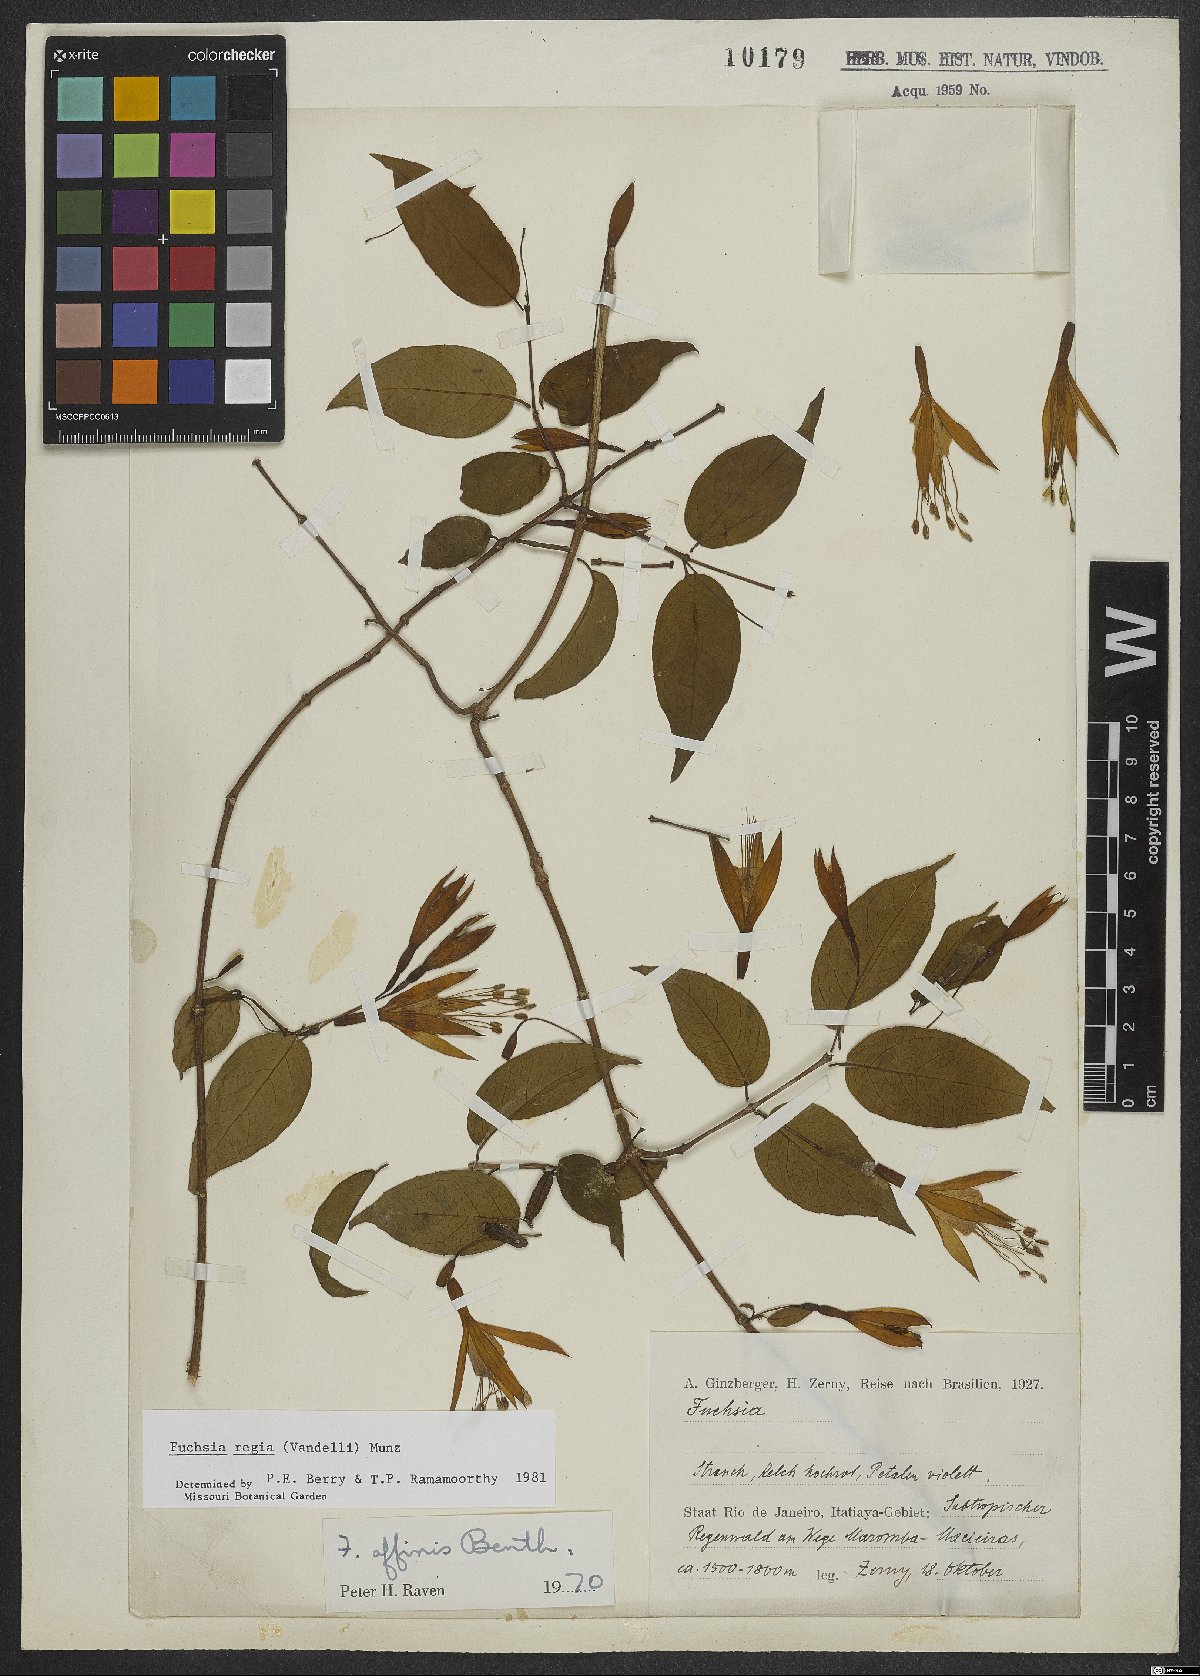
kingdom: Plantae
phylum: Tracheophyta
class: Magnoliopsida
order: Myrtales
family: Onagraceae
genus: Fuchsia
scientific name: Fuchsia regia
